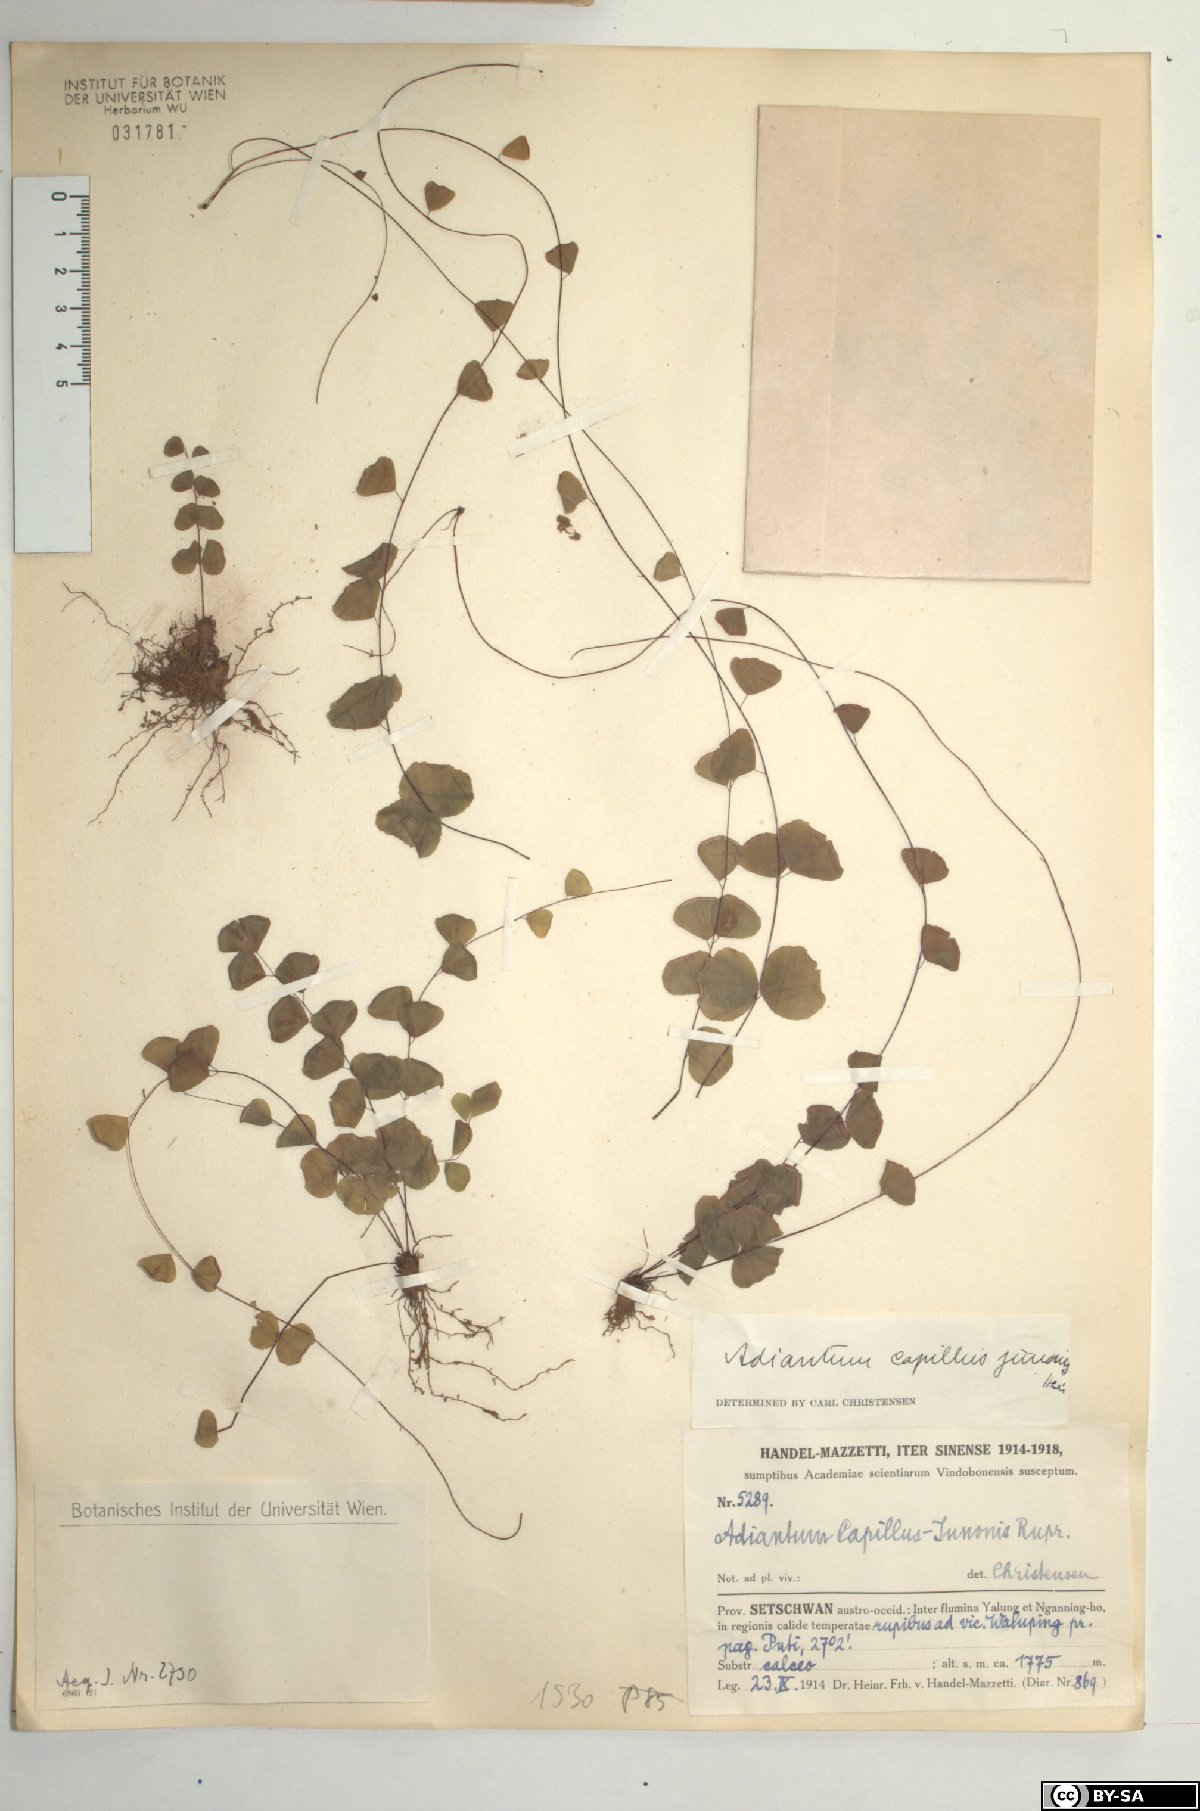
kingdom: Plantae
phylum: Tracheophyta
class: Polypodiopsida
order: Polypodiales
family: Pteridaceae
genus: Adiantum
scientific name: Adiantum capillus-junonis
